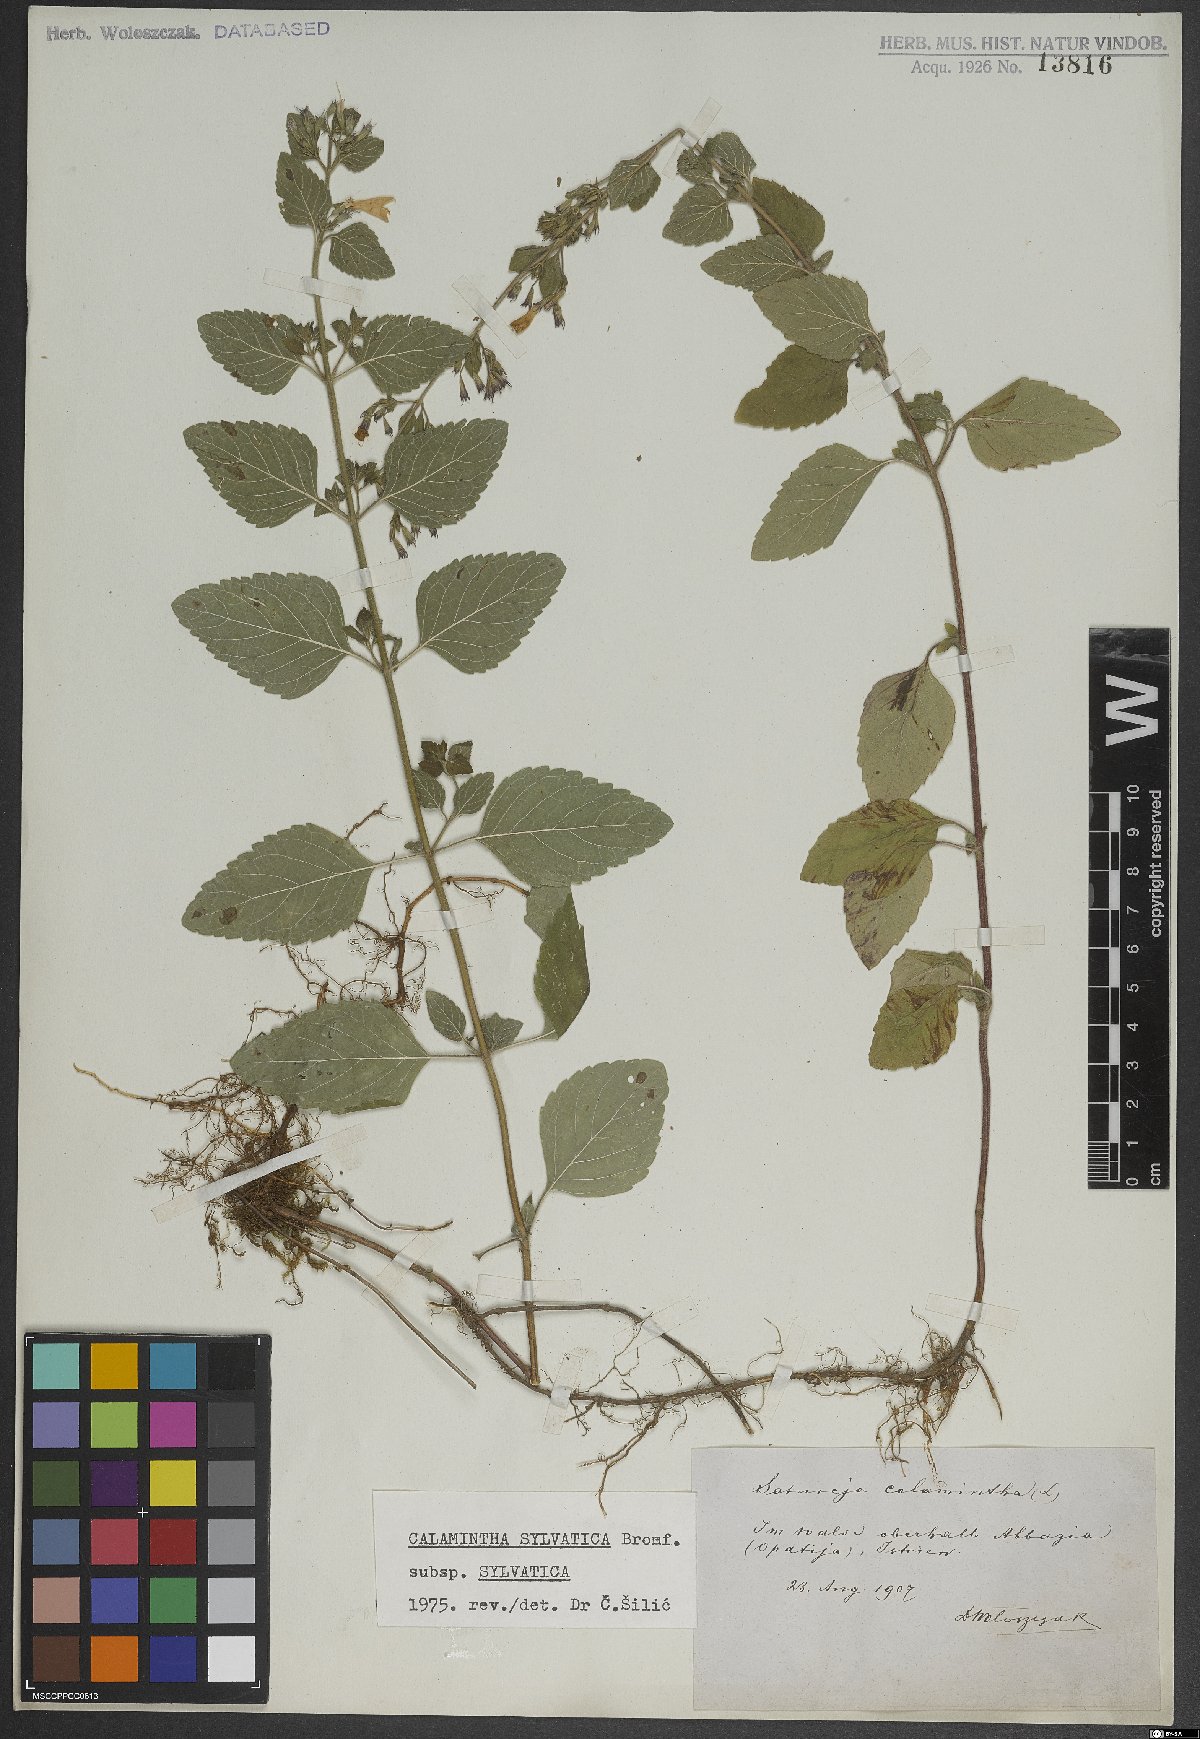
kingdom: Plantae
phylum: Tracheophyta
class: Magnoliopsida
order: Lamiales
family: Lamiaceae
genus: Clinopodium
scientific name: Clinopodium menthifolium
